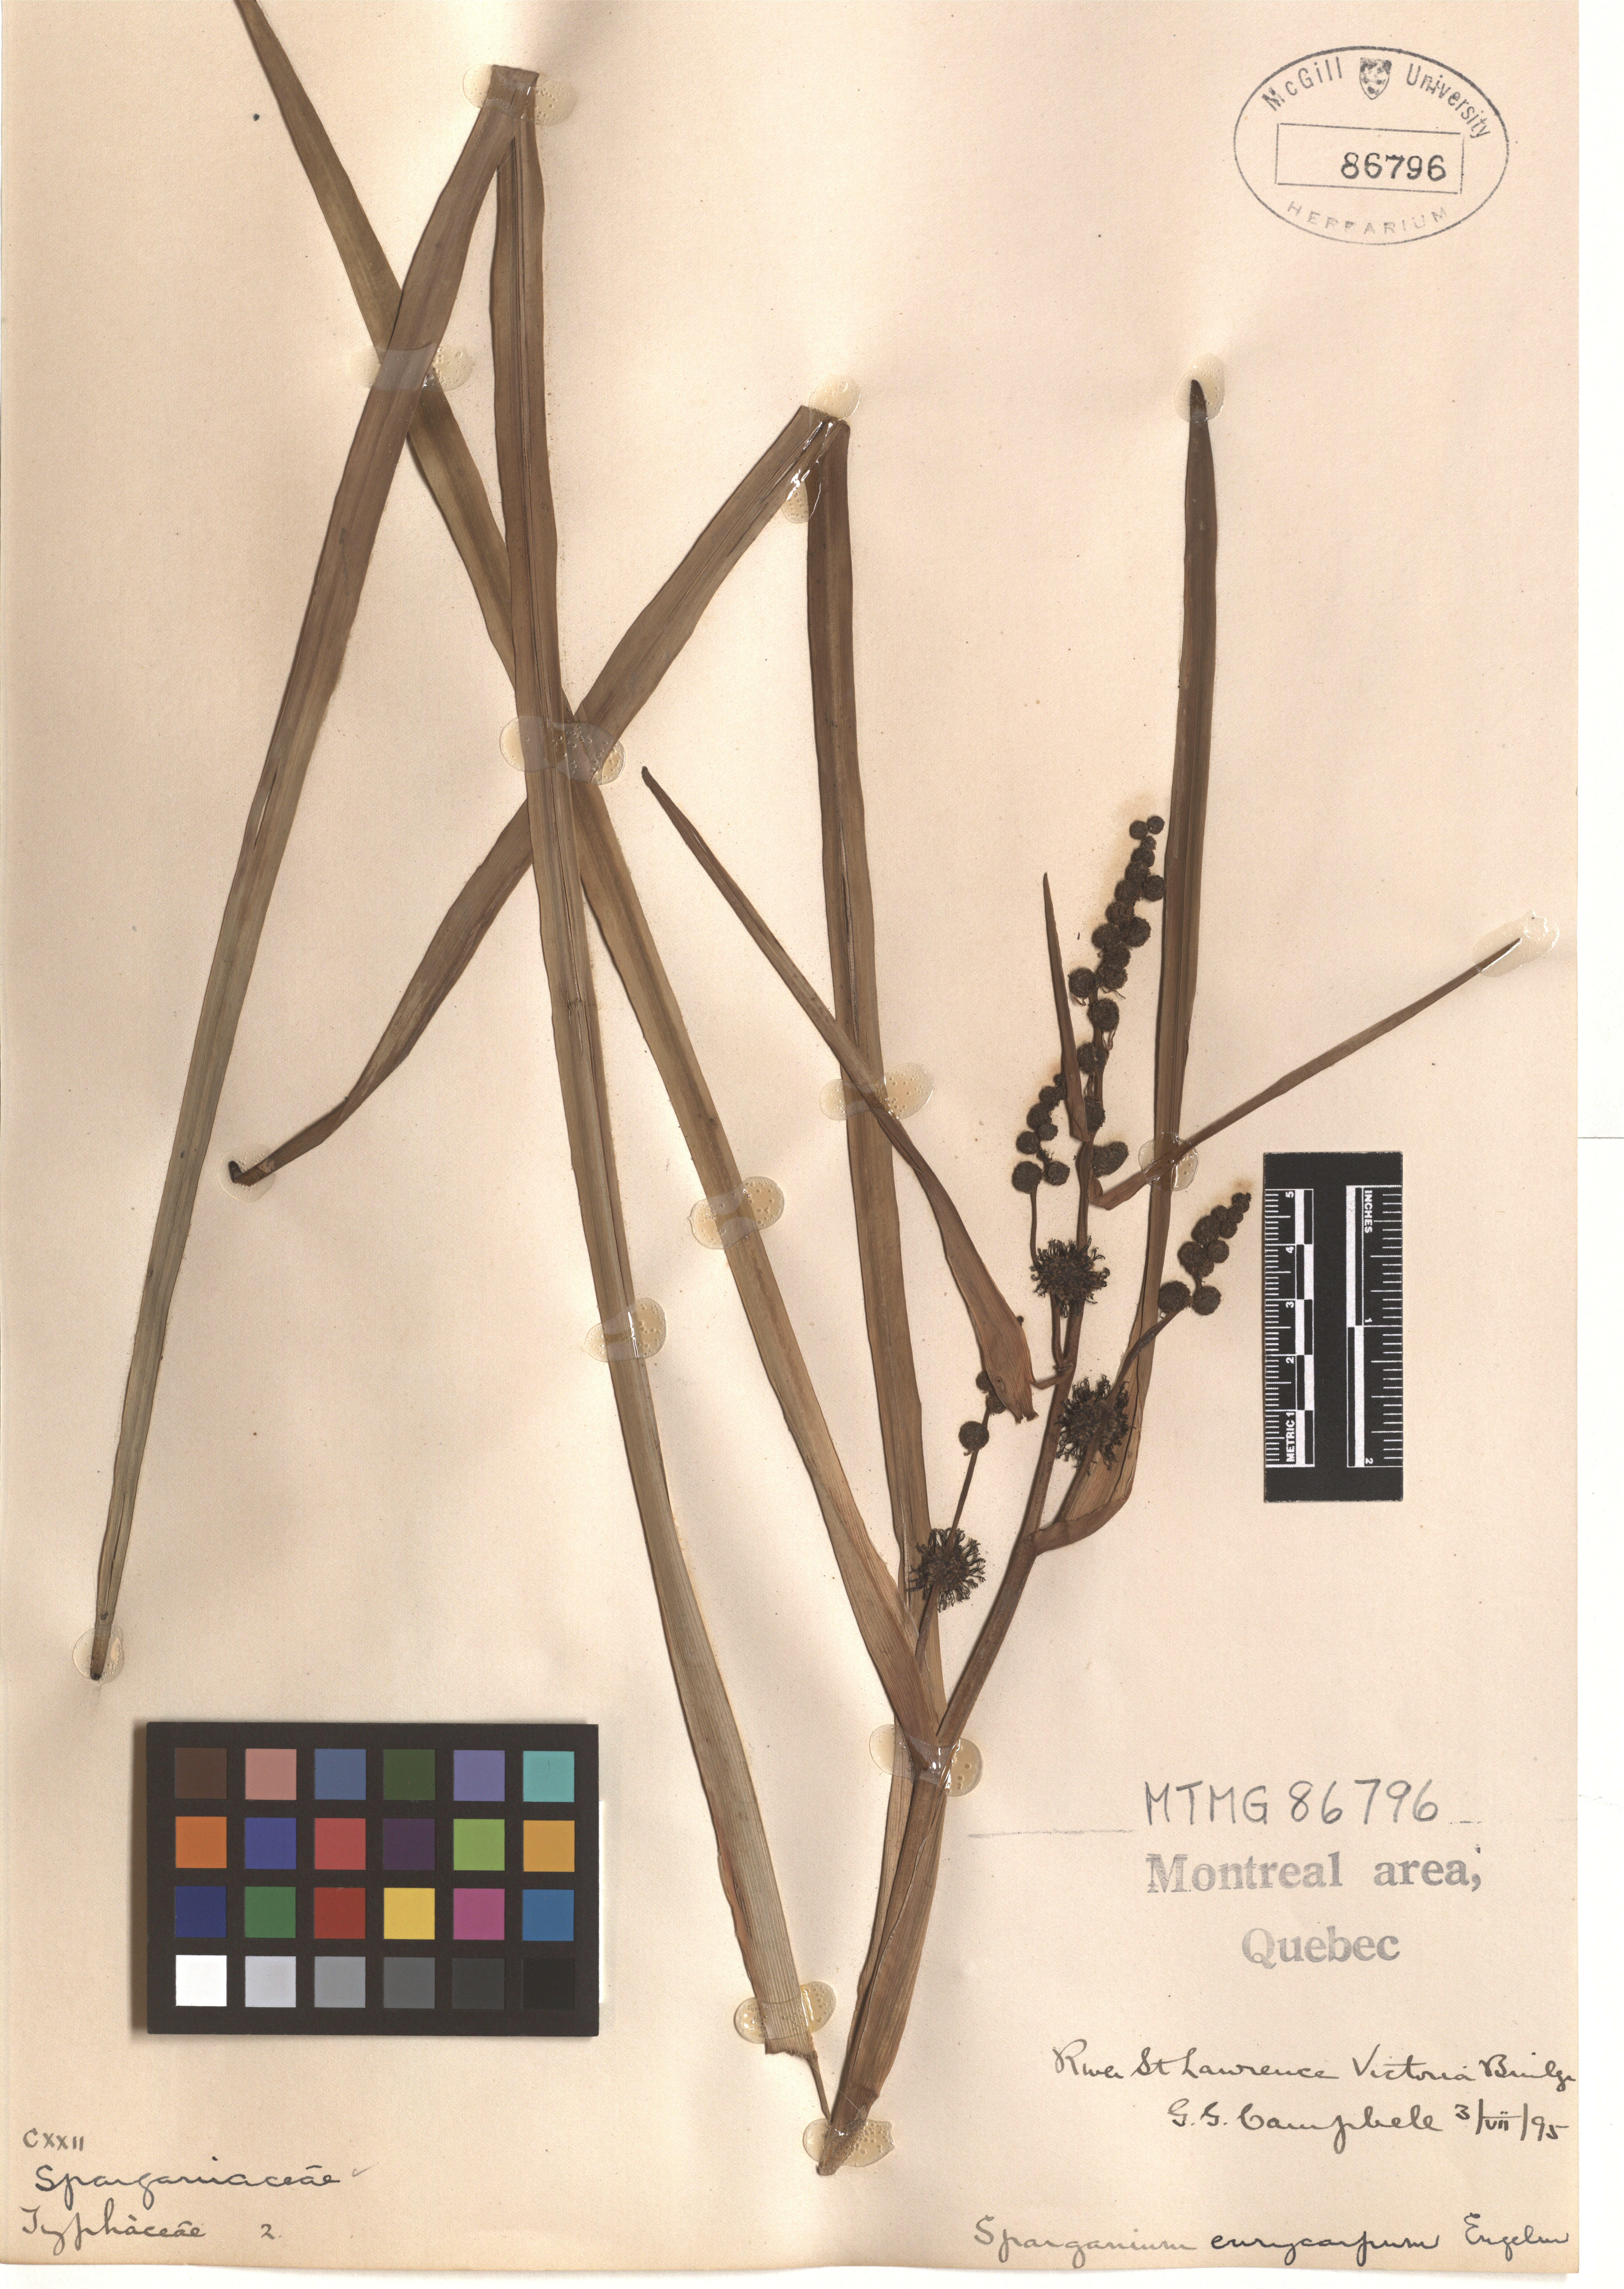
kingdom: Plantae
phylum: Tracheophyta
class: Liliopsida
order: Poales
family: Typhaceae
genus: Sparganium
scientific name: Sparganium eurycarpum
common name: Broad-fruited burreed
